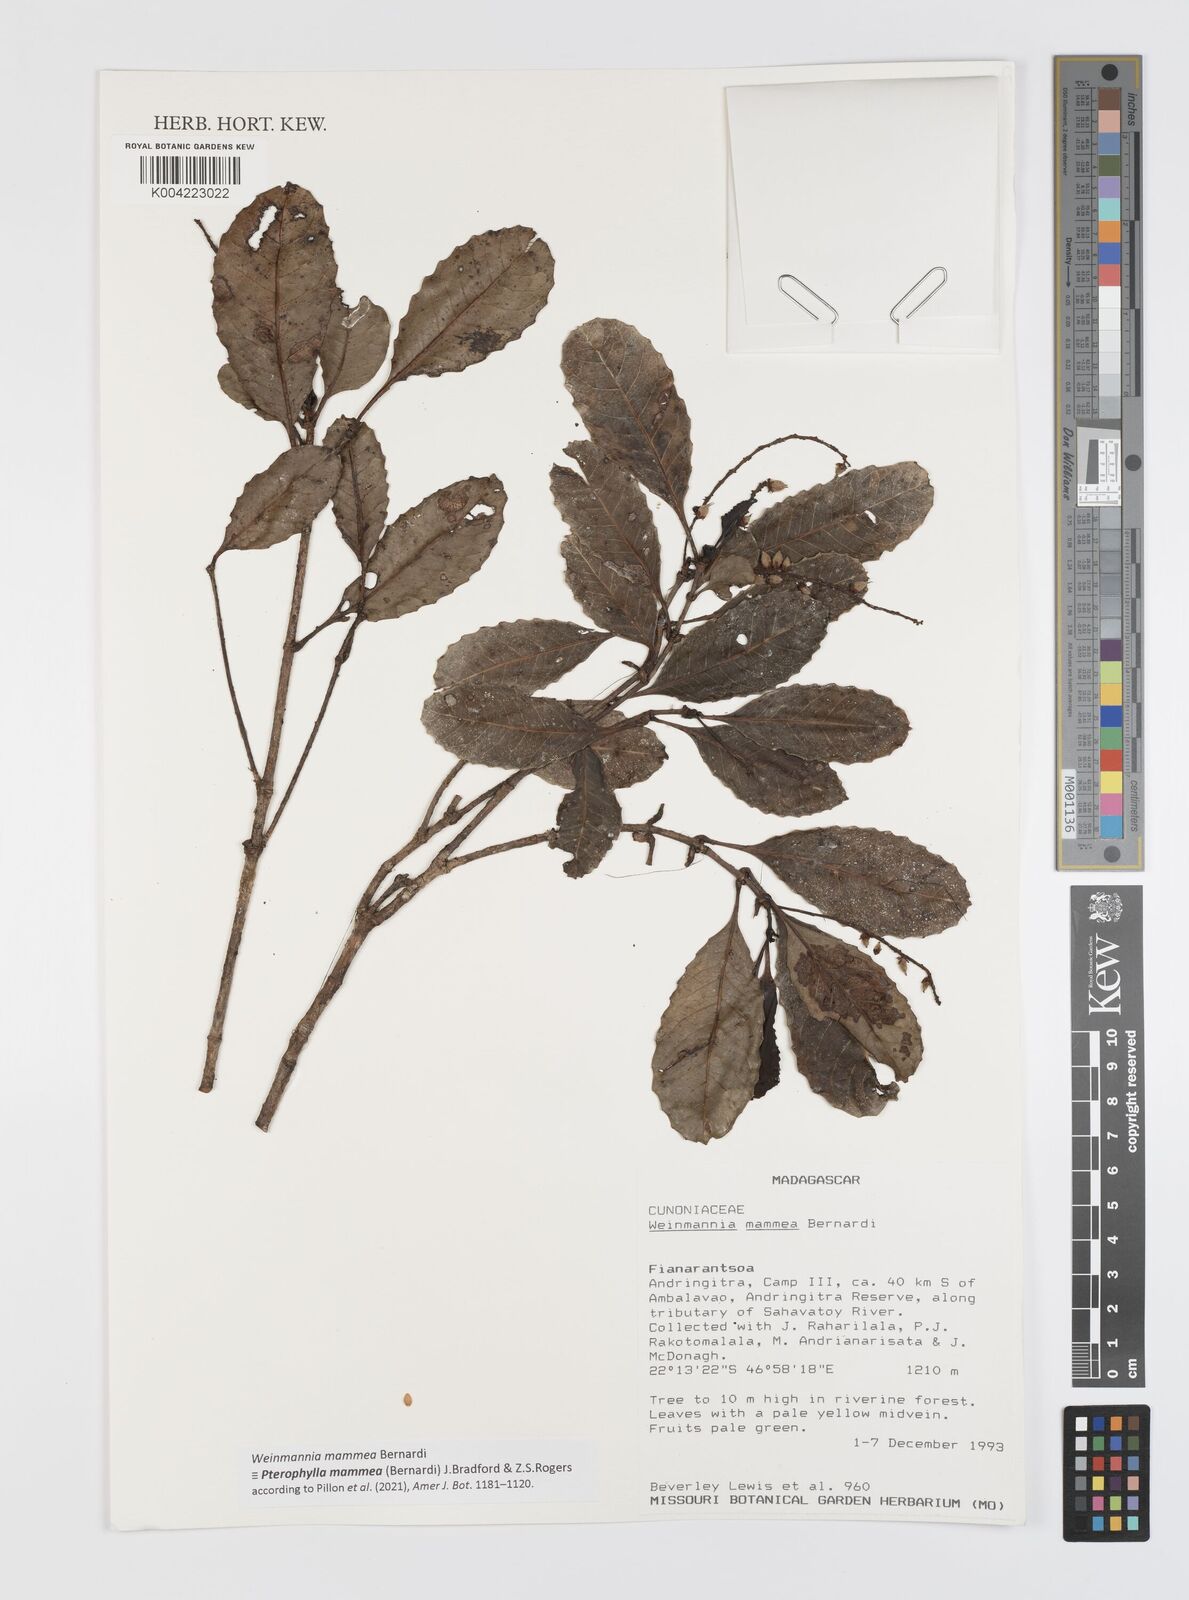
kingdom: Plantae
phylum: Tracheophyta
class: Magnoliopsida
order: Oxalidales
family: Cunoniaceae
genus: Pterophylla
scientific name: Pterophylla mammea
